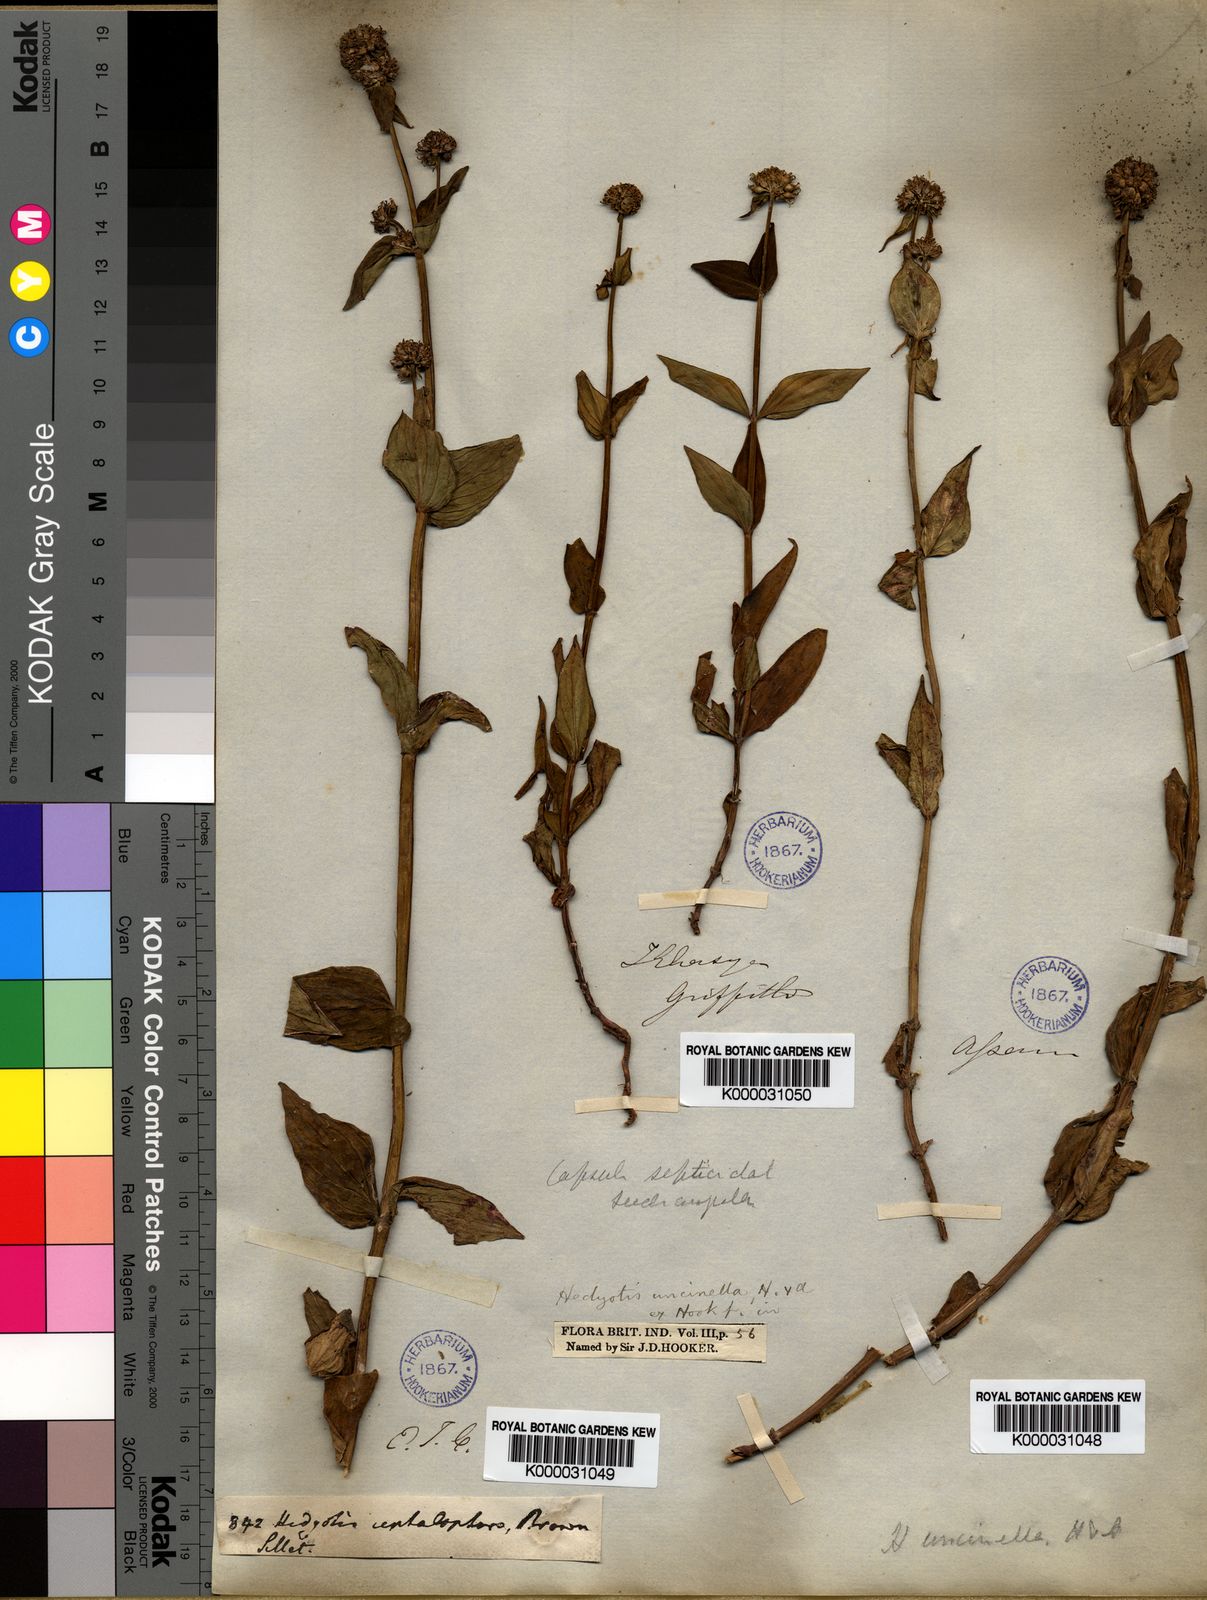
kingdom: Plantae
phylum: Tracheophyta
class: Magnoliopsida
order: Gentianales
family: Rubiaceae
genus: Hedyotis
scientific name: Hedyotis uncinella
